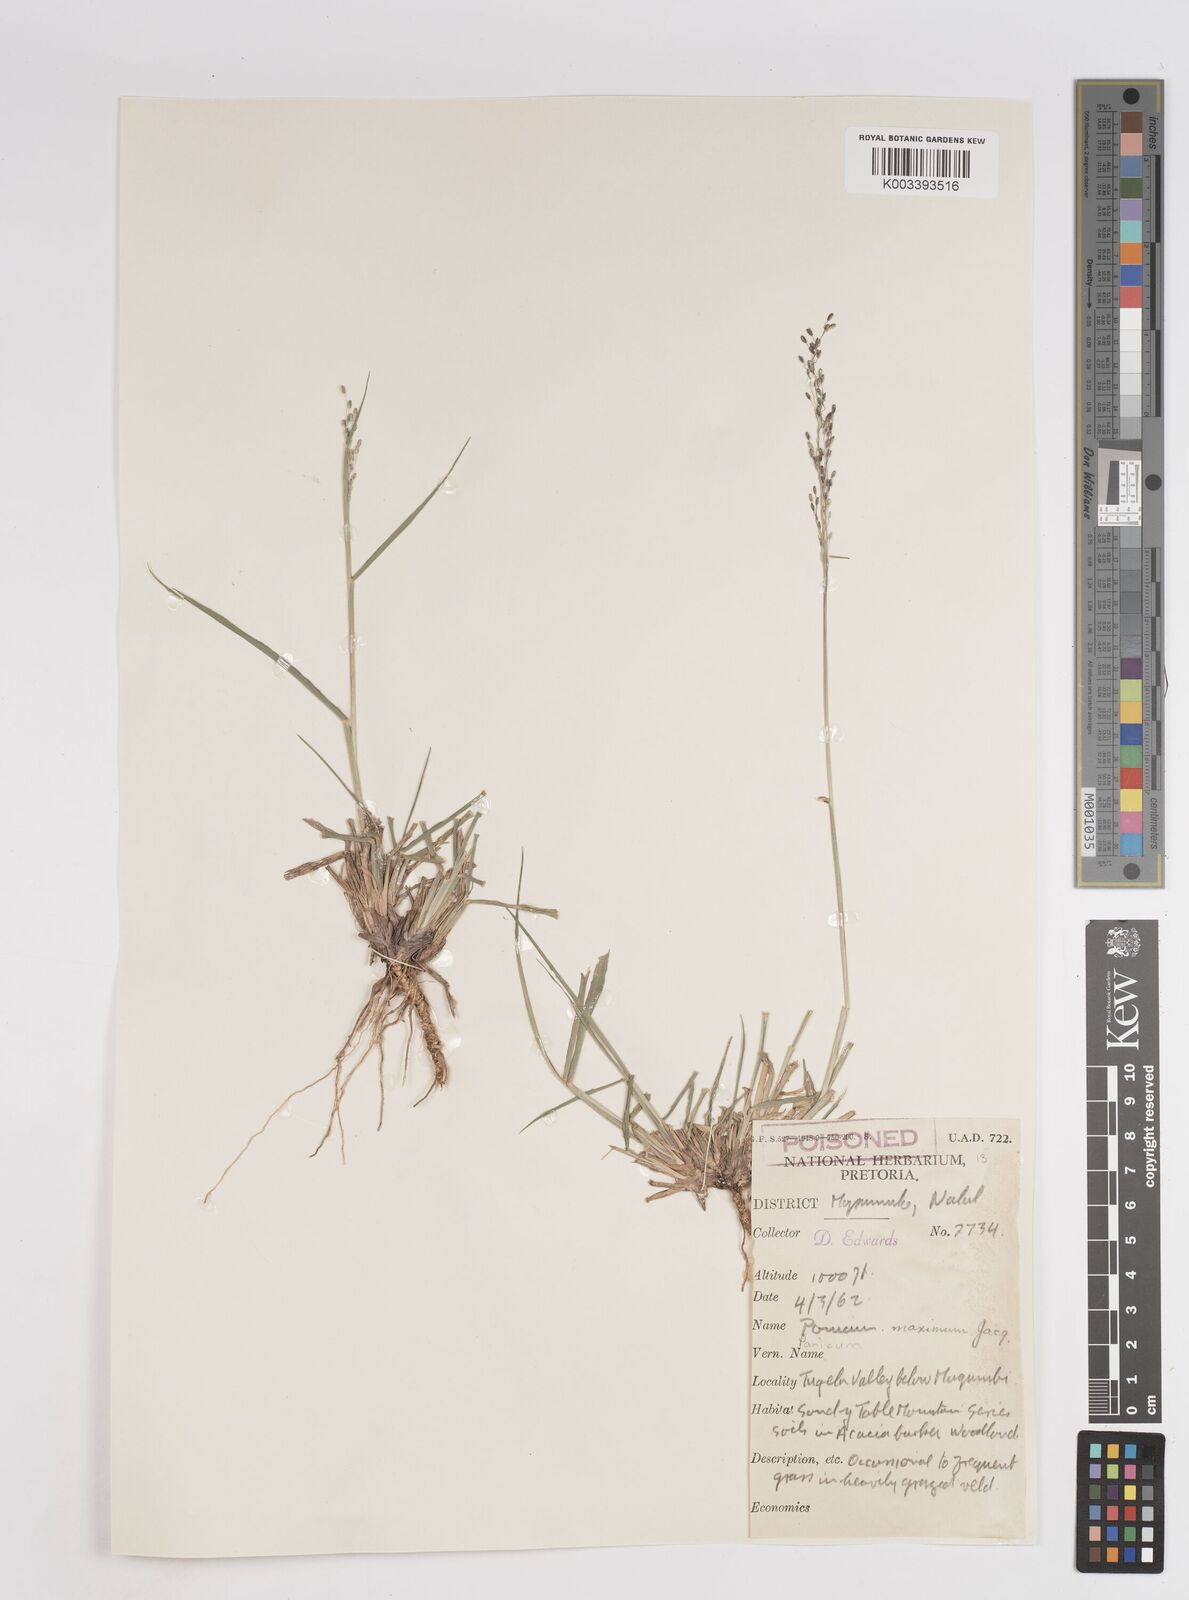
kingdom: Plantae
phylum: Tracheophyta
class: Liliopsida
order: Poales
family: Poaceae
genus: Megathyrsus
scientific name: Megathyrsus maximus
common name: Guineagrass
